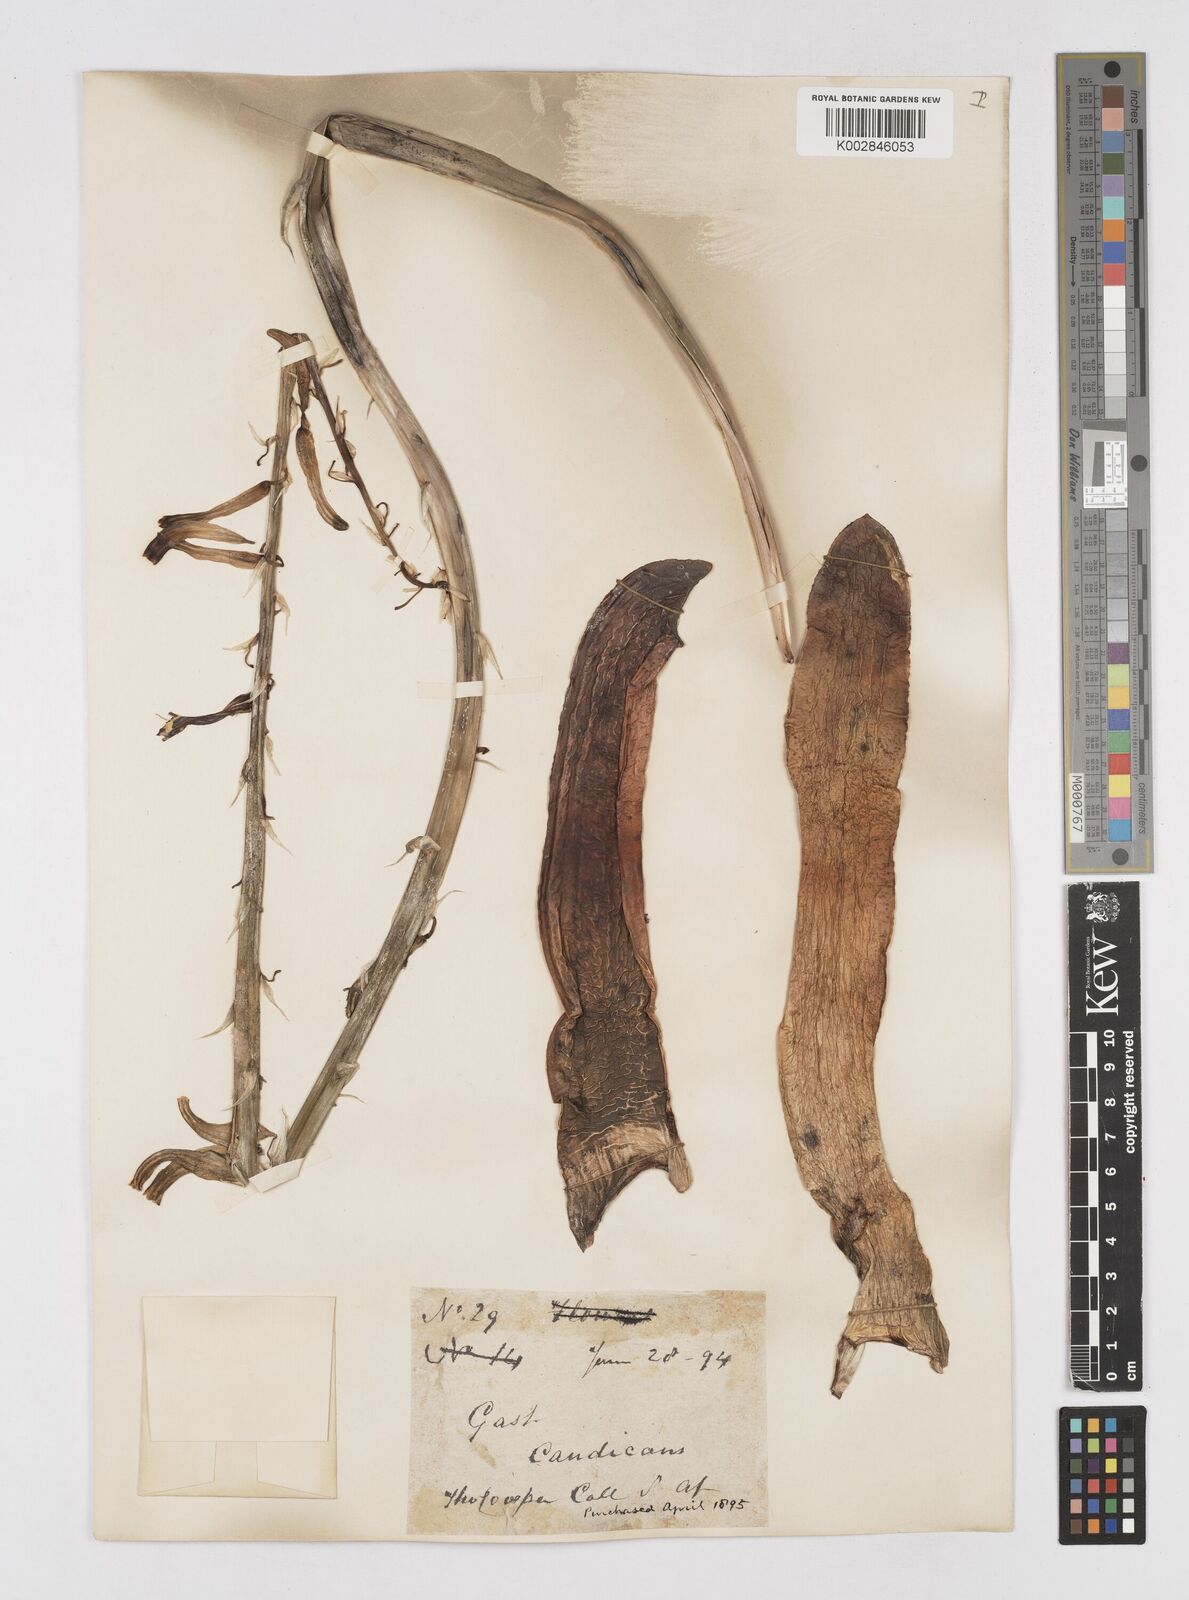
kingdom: Plantae
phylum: Tracheophyta
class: Liliopsida
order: Asparagales
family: Asphodelaceae
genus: Gasteria
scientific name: Gasteria acinacifolia
